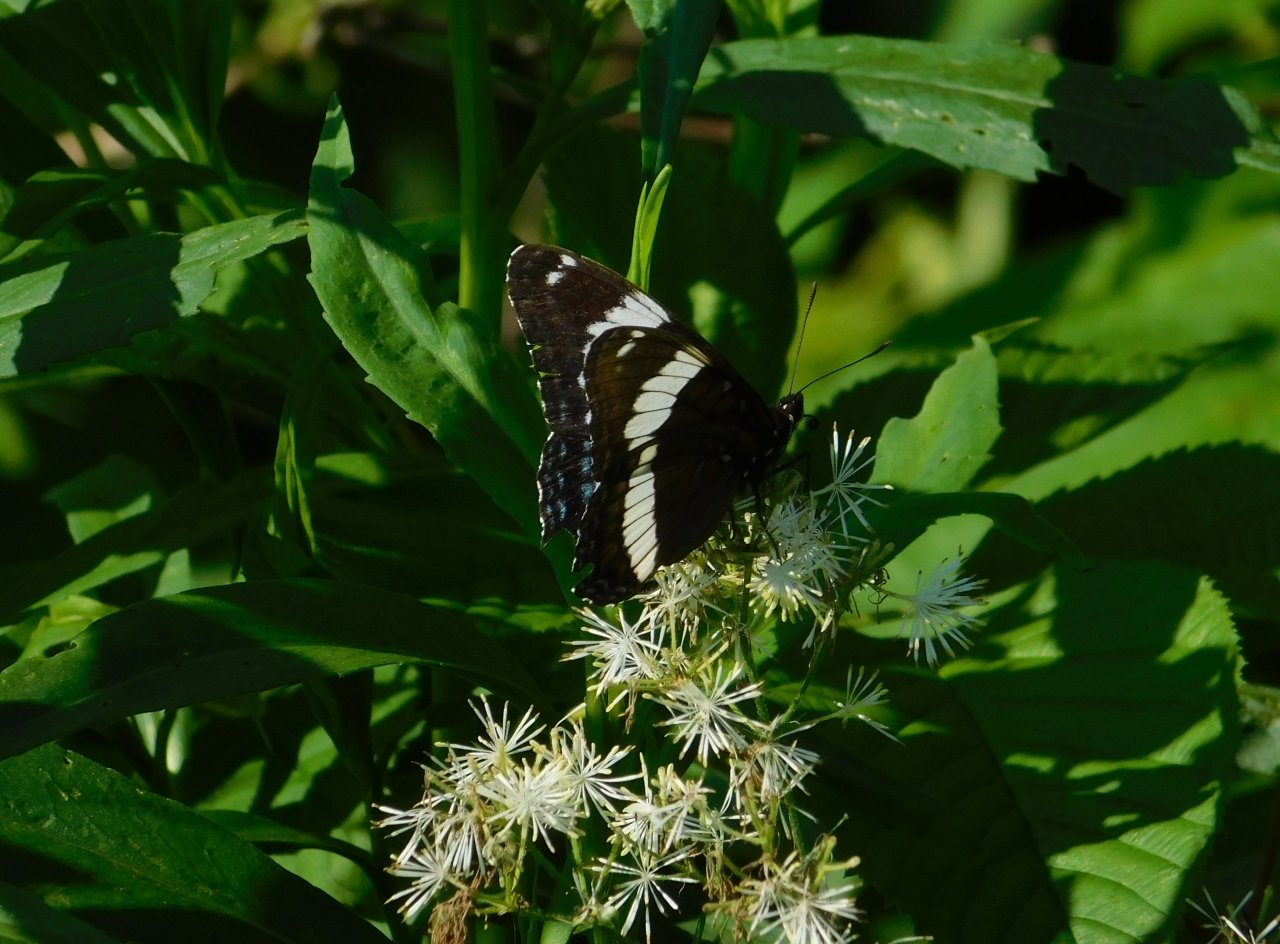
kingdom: Animalia
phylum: Arthropoda
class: Insecta
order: Lepidoptera
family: Nymphalidae
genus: Limenitis
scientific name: Limenitis arthemis
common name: Red-spotted Admiral
